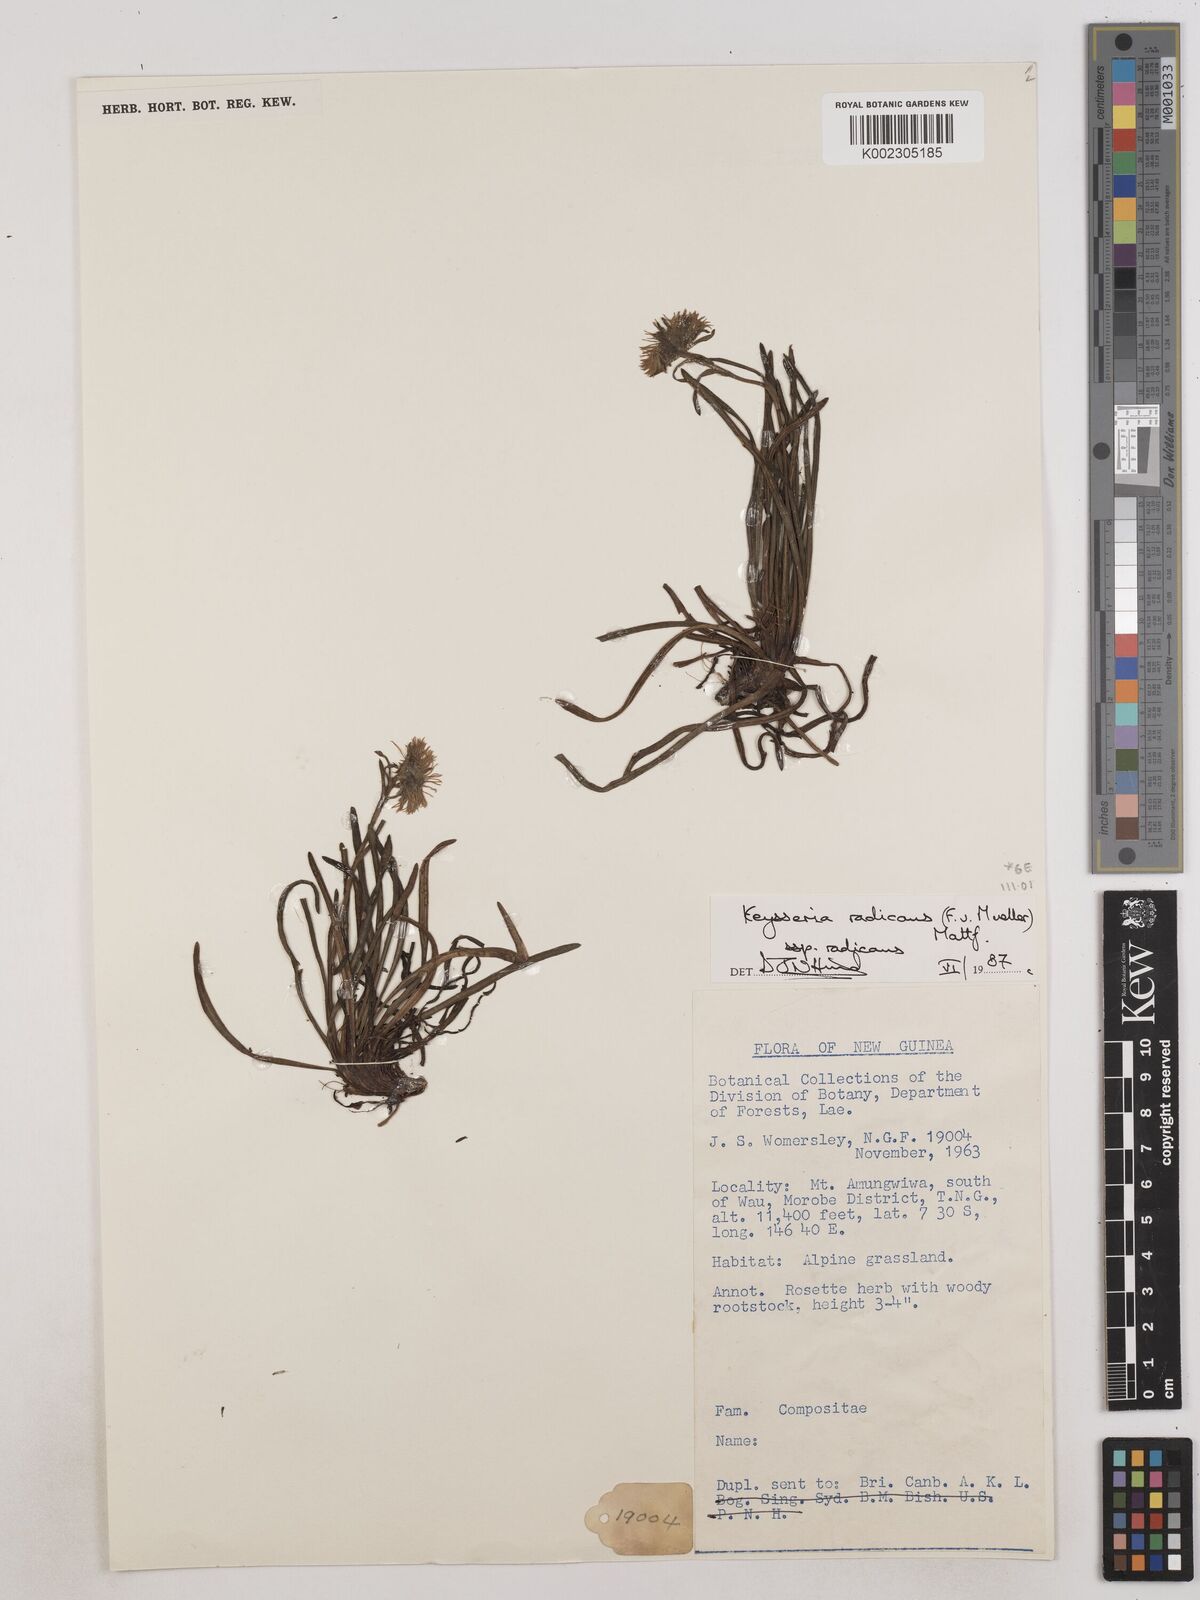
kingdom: Plantae
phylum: Tracheophyta
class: Magnoliopsida
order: Asterales
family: Asteraceae
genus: Keysseria
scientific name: Keysseria radicans
